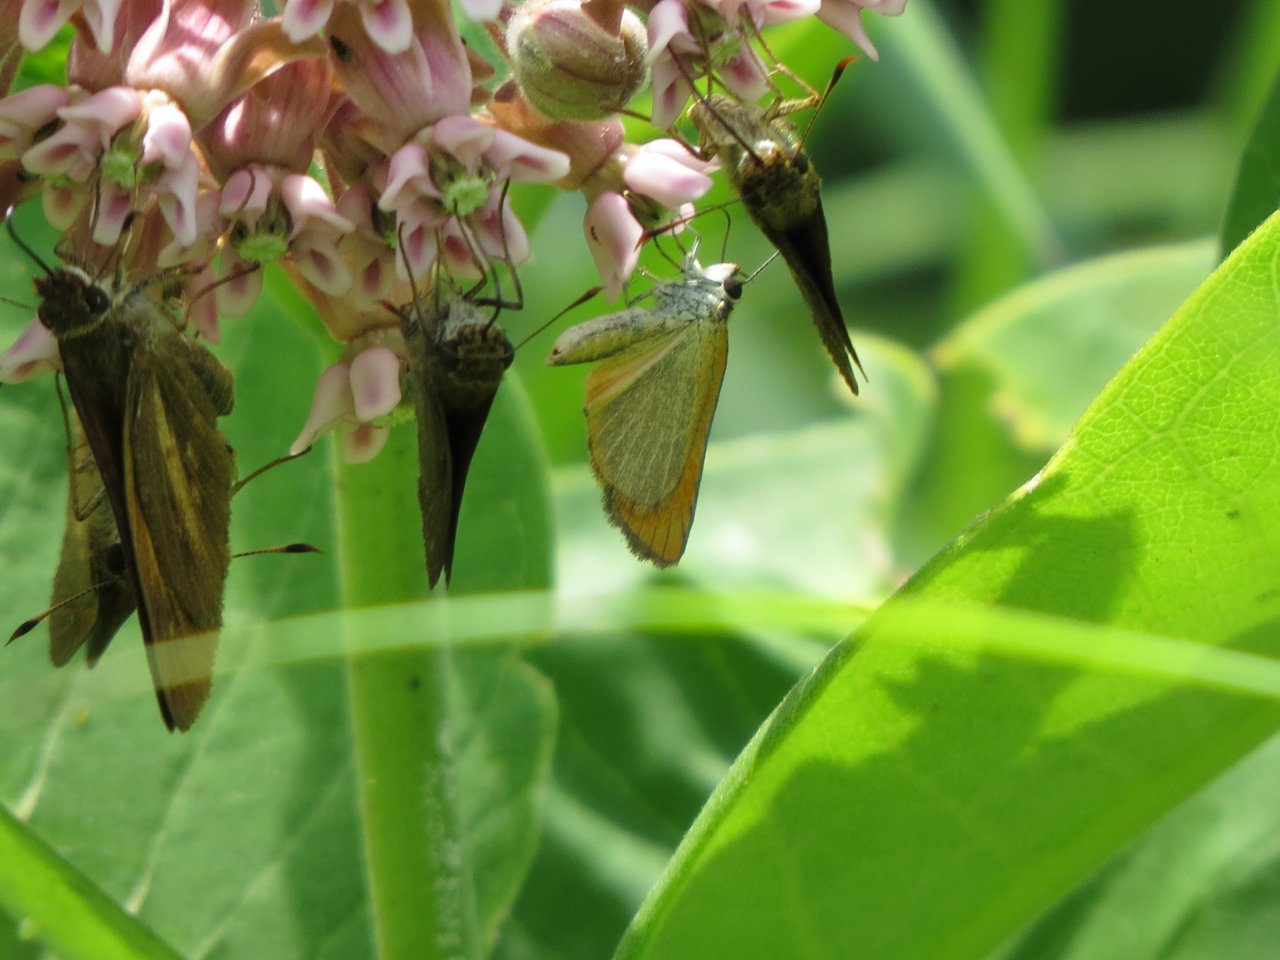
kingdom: Animalia
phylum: Arthropoda
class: Insecta
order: Lepidoptera
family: Hesperiidae
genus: Ancyloxypha
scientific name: Ancyloxypha numitor
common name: Least Skipper
